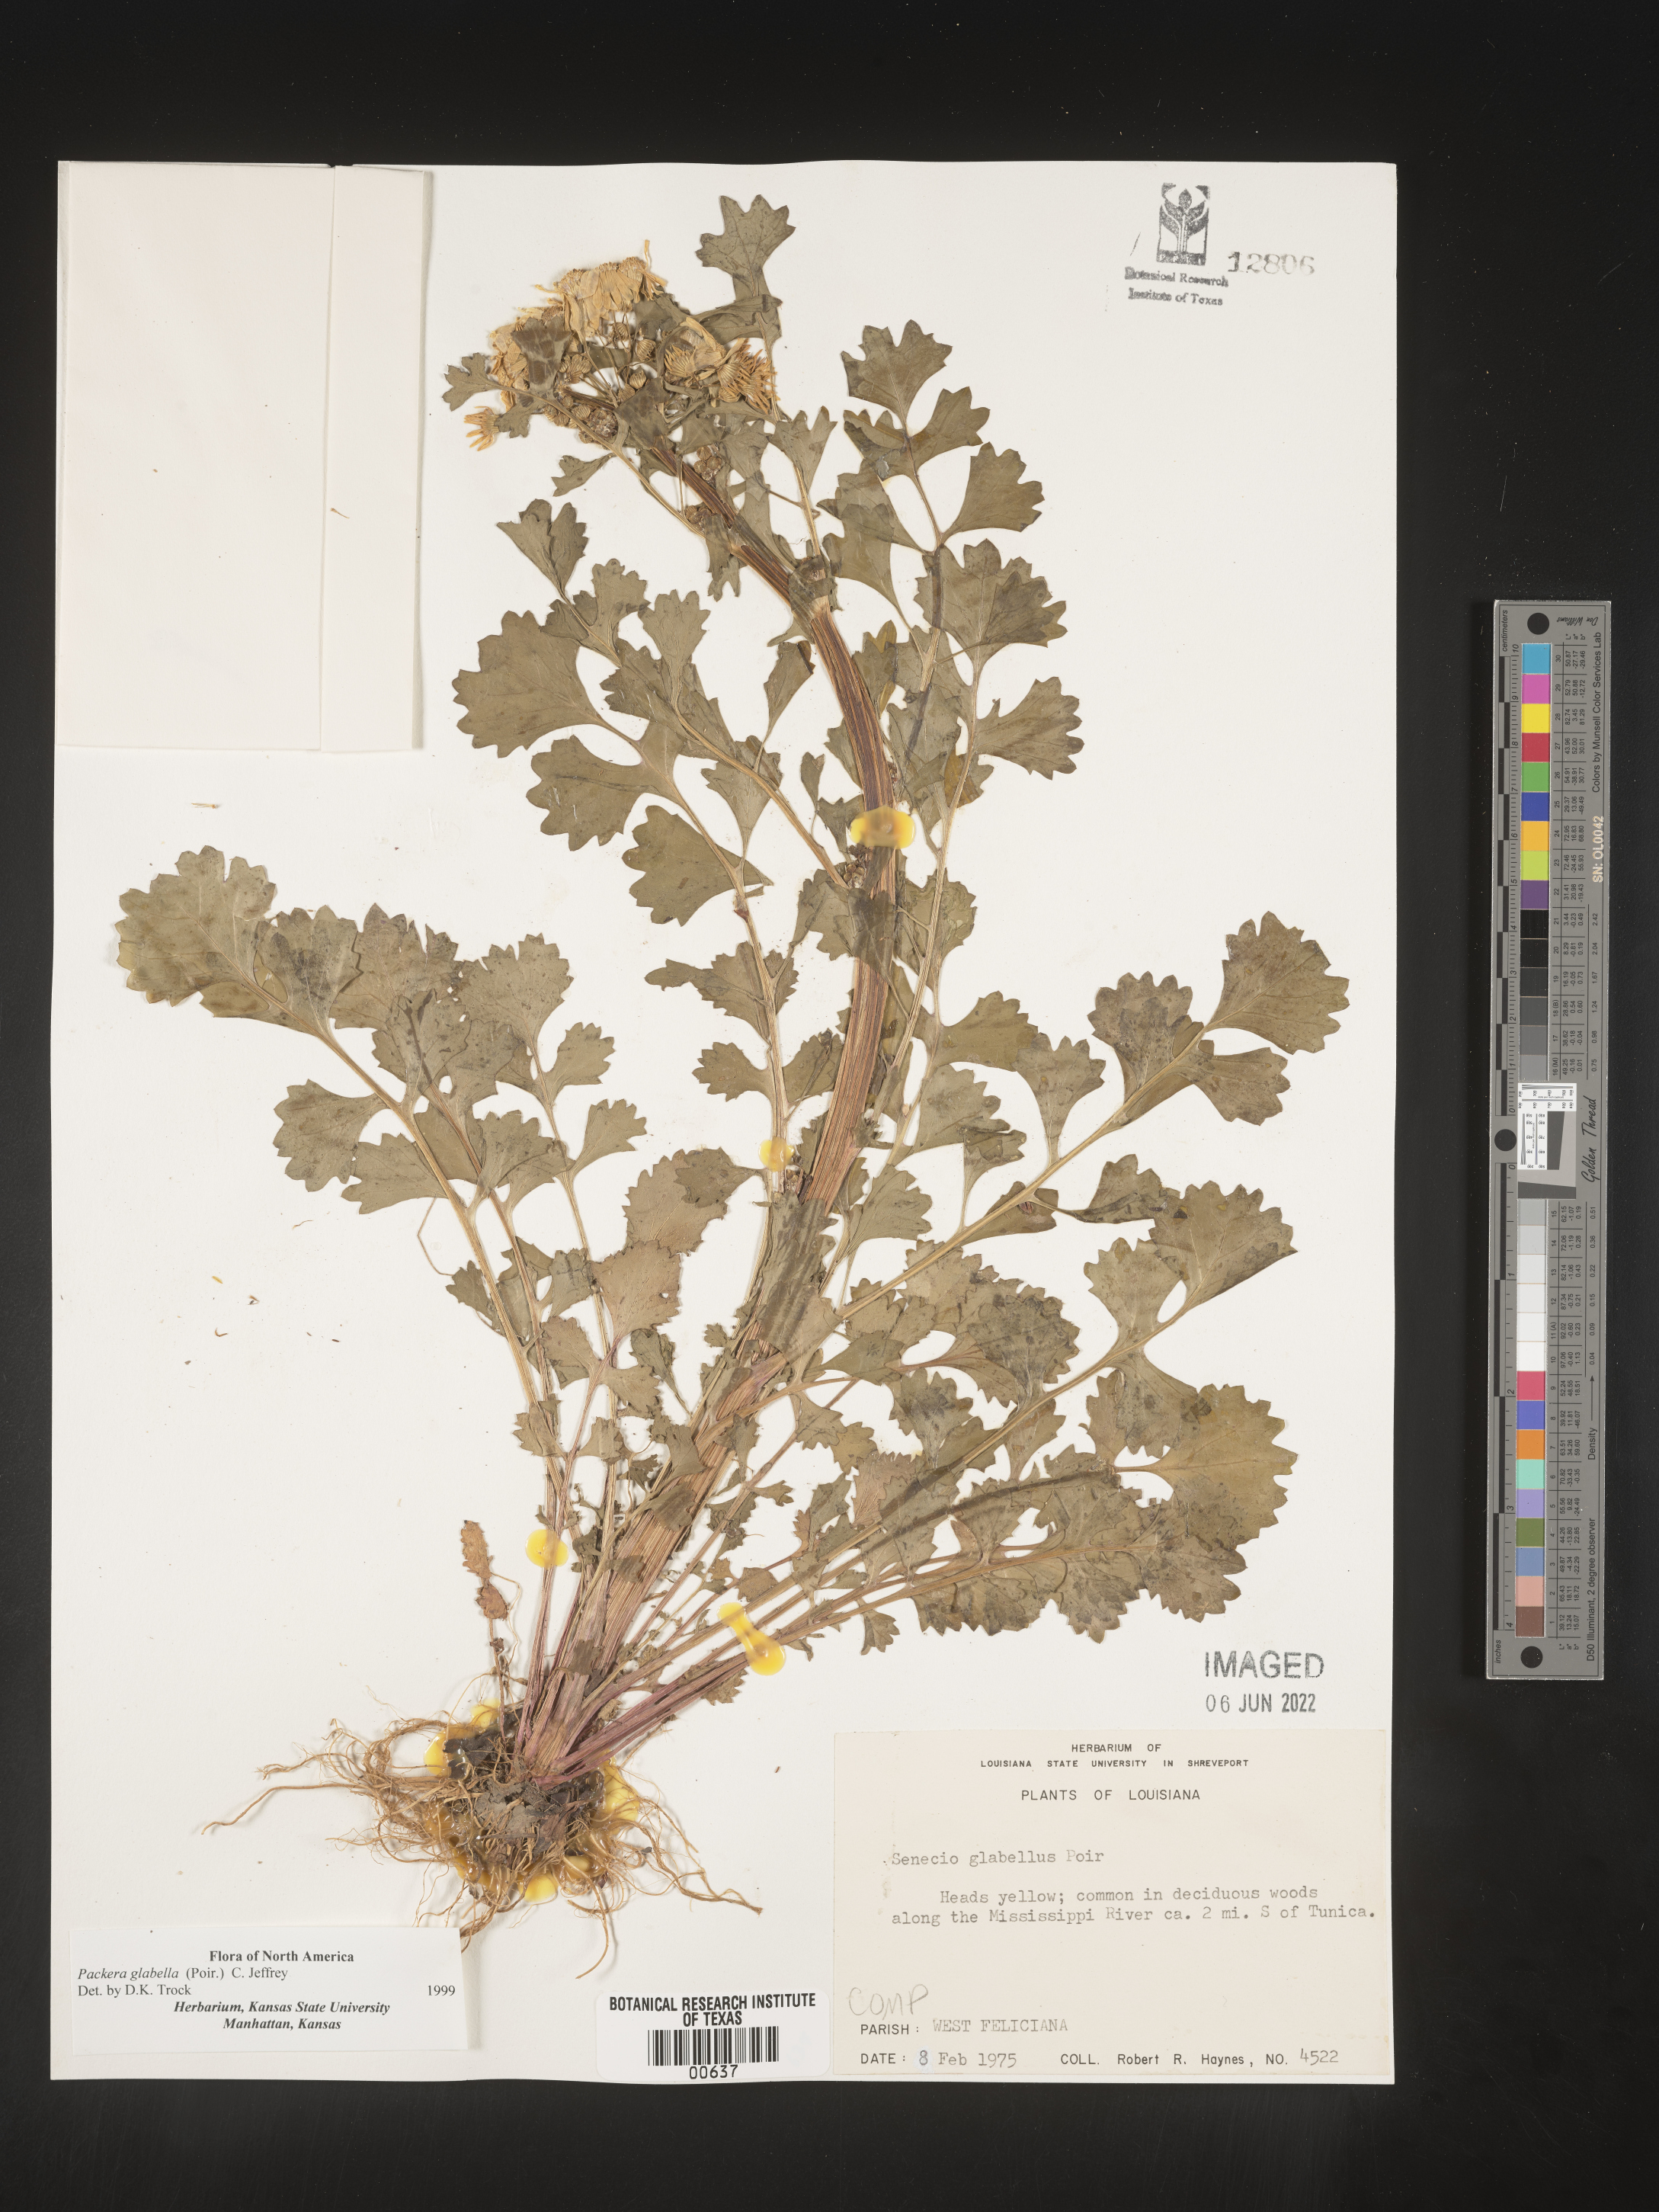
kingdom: Plantae
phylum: Tracheophyta
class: Magnoliopsida
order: Asterales
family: Asteraceae
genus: Packera
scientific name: Packera glabella
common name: Butterweed
